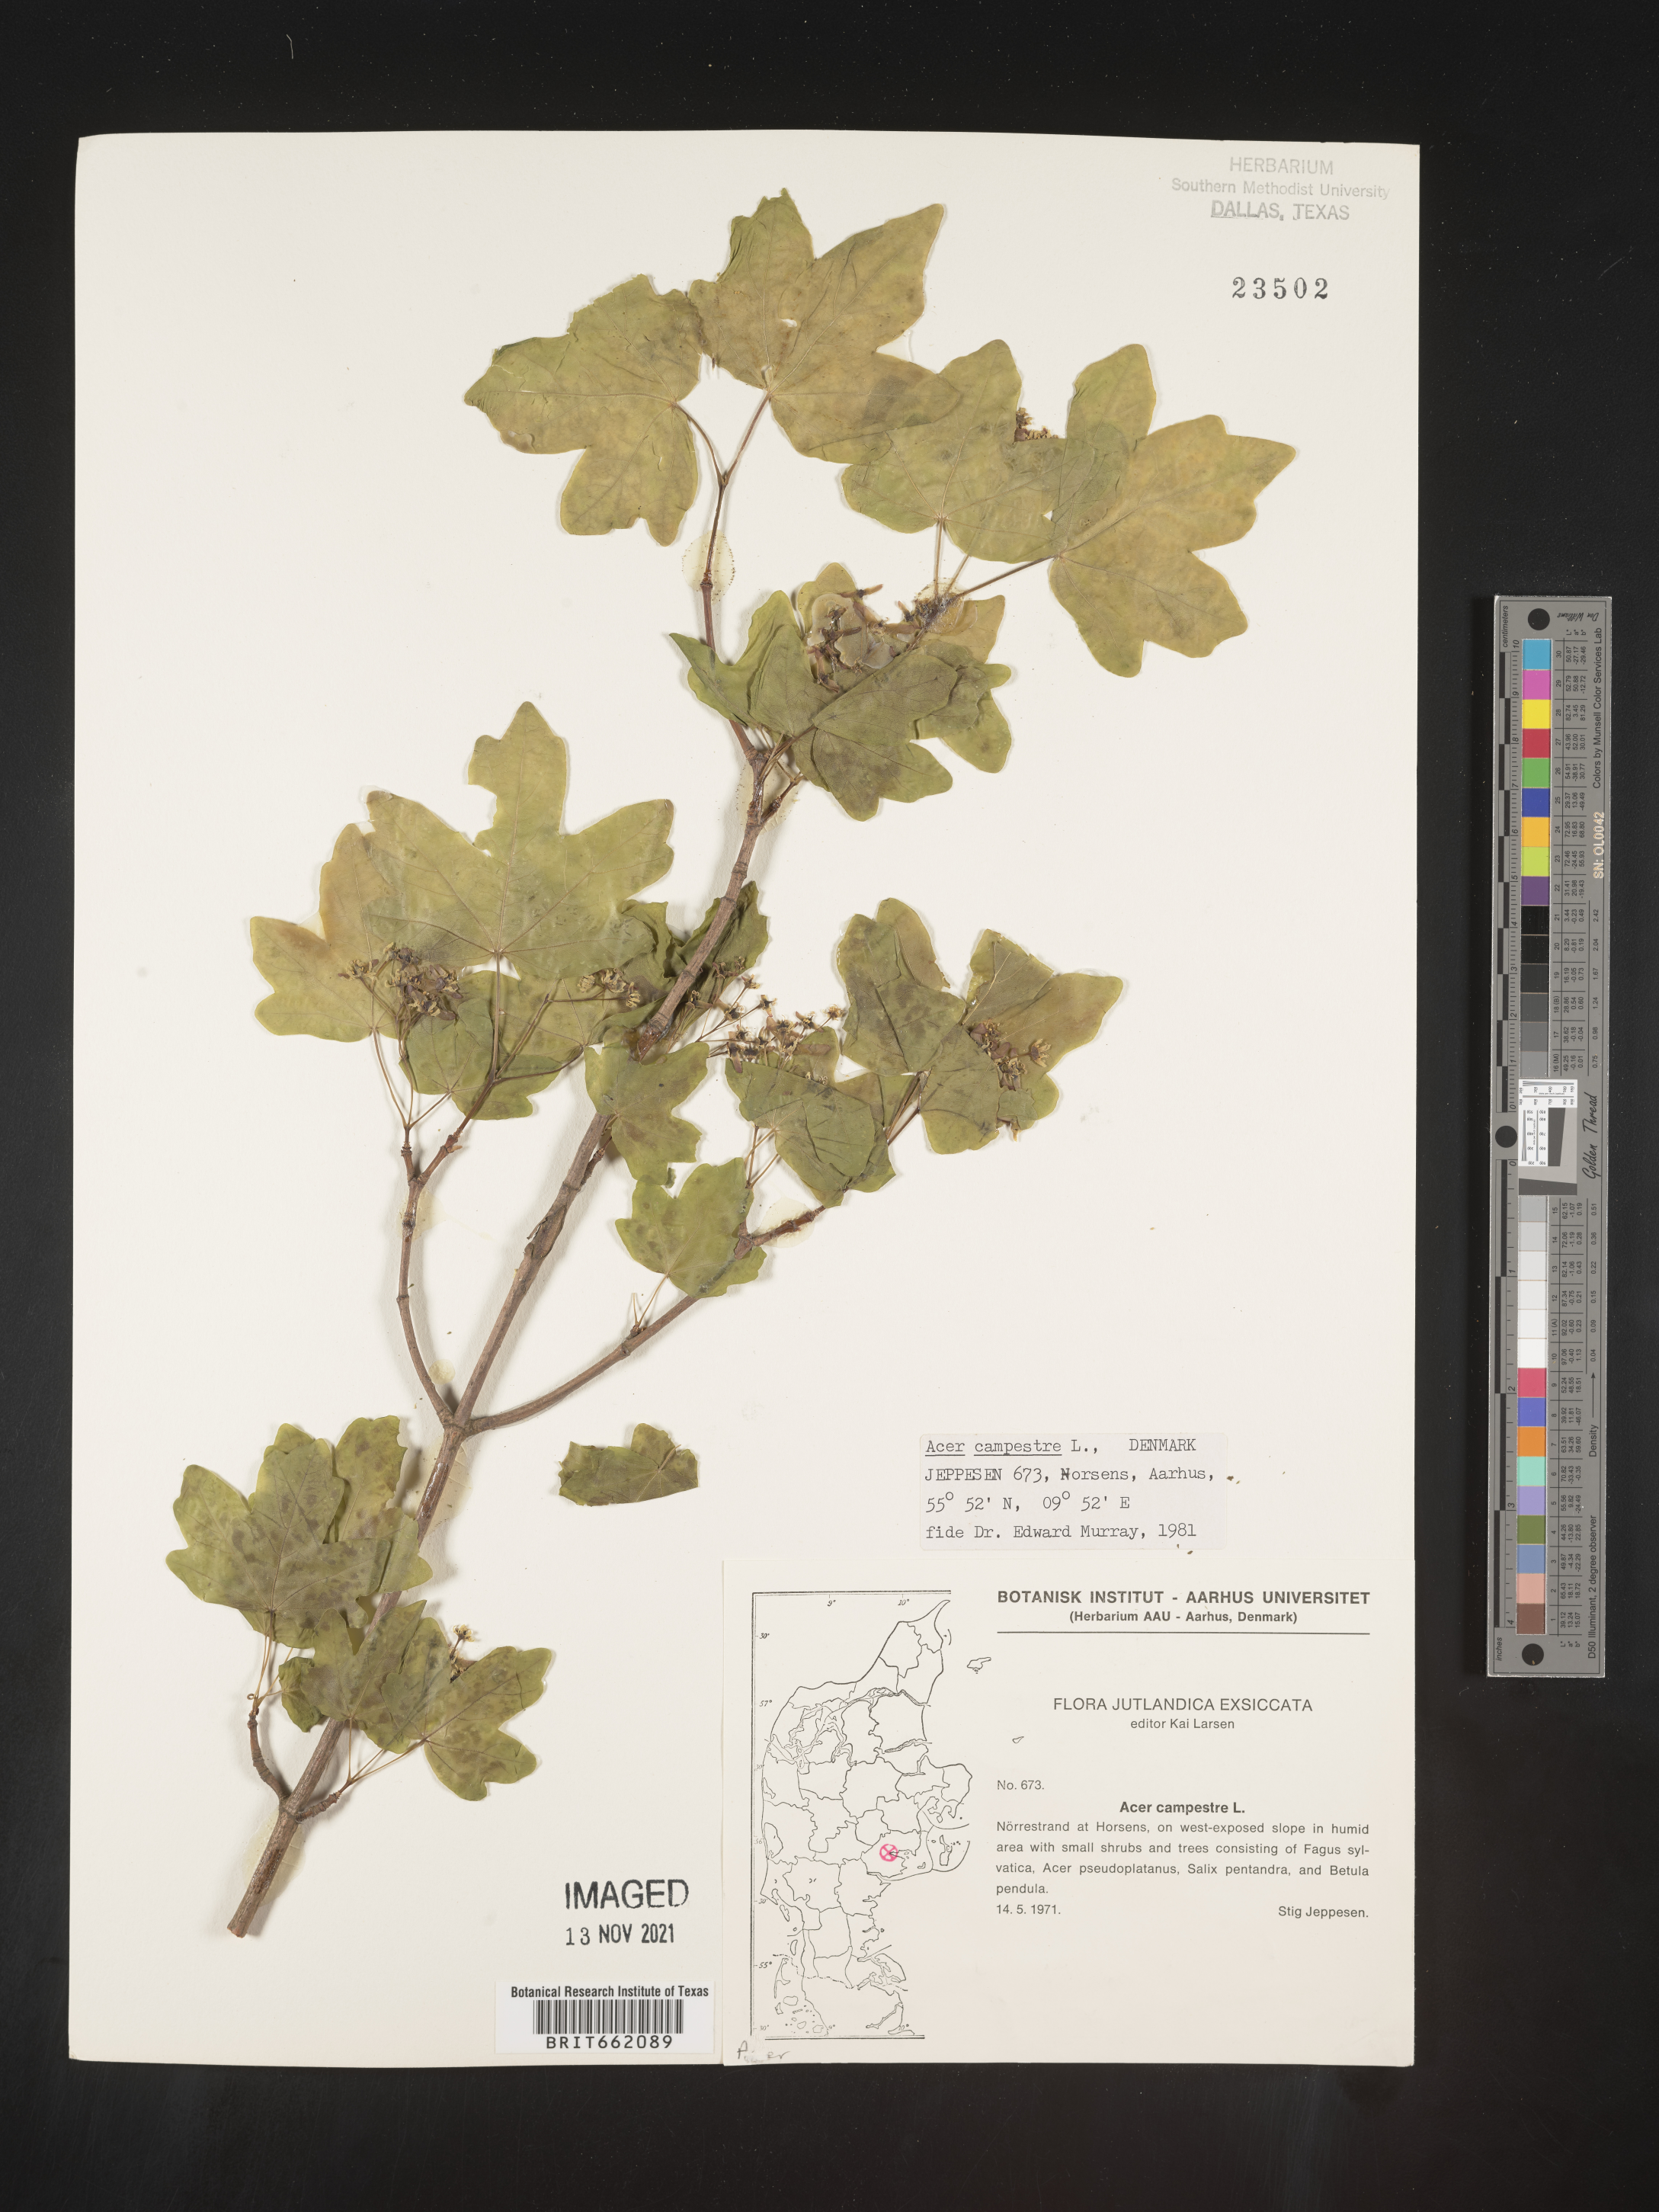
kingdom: Plantae
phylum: Tracheophyta
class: Magnoliopsida
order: Sapindales
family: Sapindaceae
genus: Acer
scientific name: Acer
